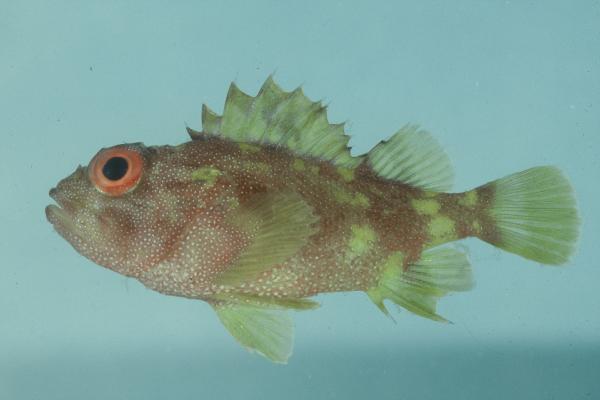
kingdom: Animalia
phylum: Chordata
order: Scorpaeniformes
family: Scorpaenidae
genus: Sebastapistes
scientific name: Sebastapistes cyanostigma
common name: Yellowspotted scorpionfish
